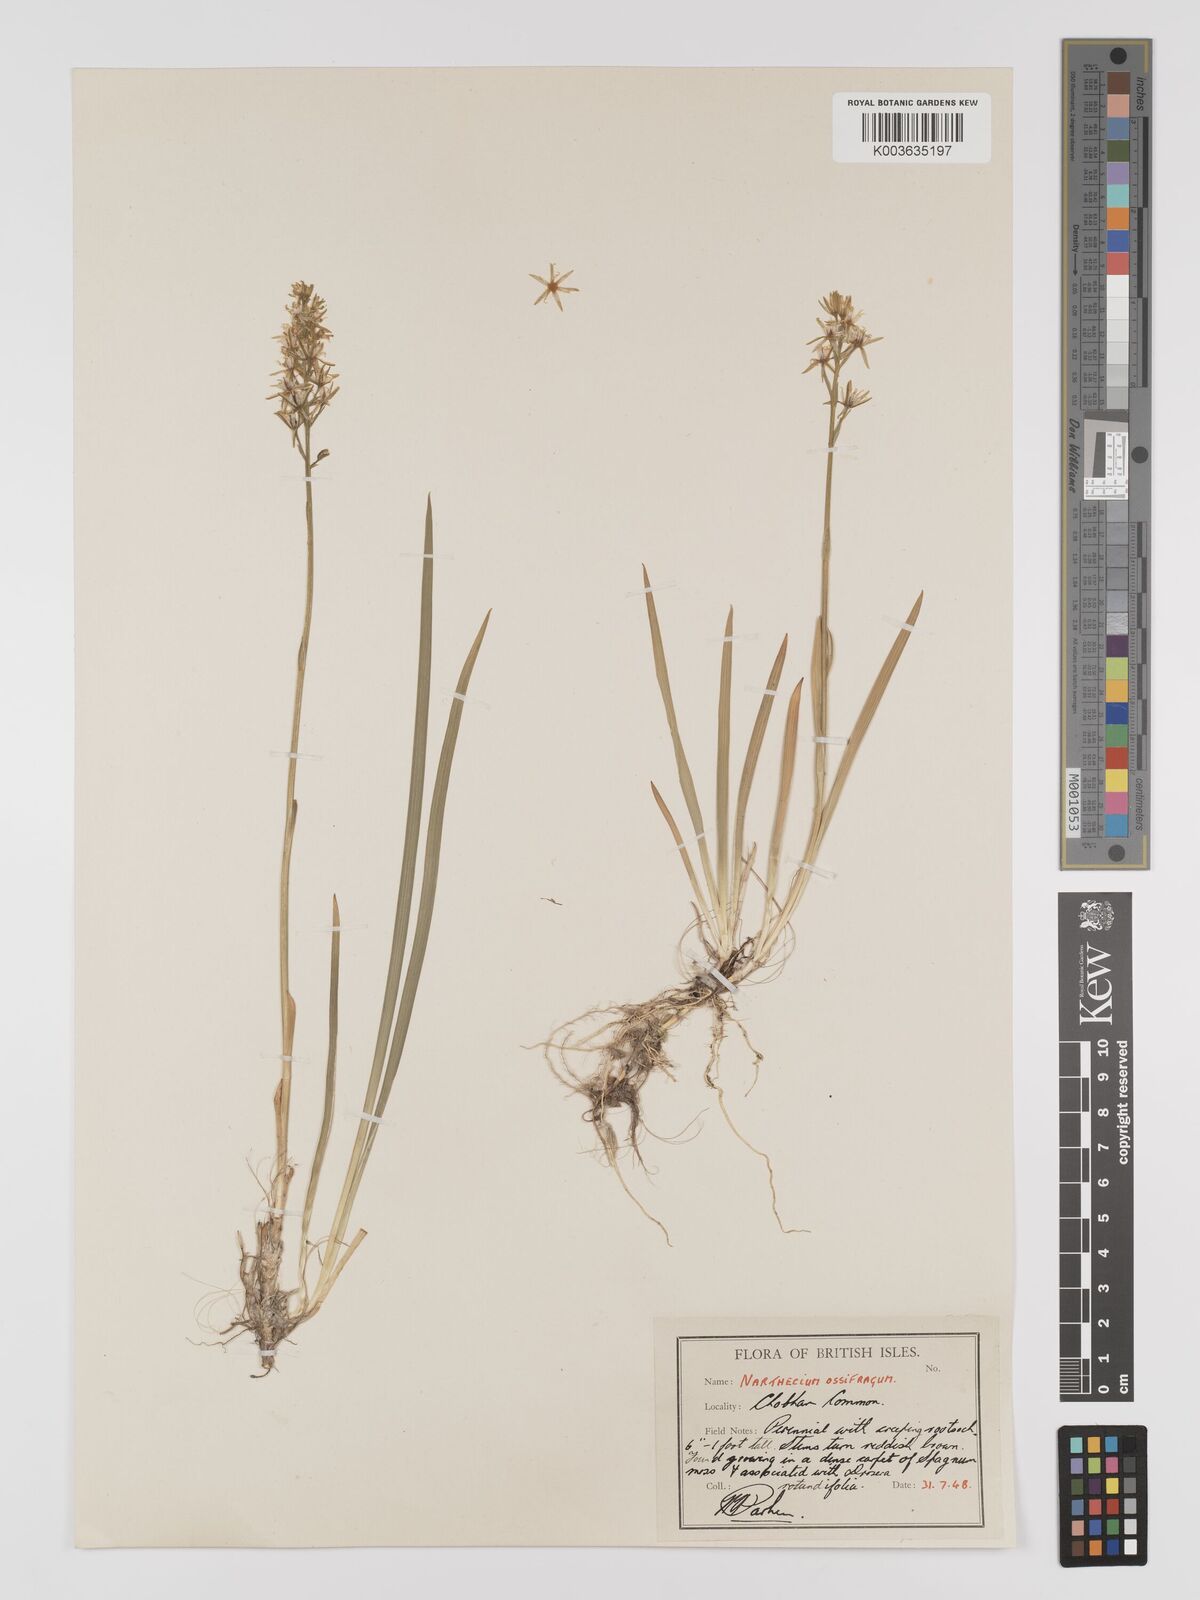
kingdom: Plantae
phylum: Tracheophyta
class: Liliopsida
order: Dioscoreales
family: Nartheciaceae
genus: Narthecium
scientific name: Narthecium
